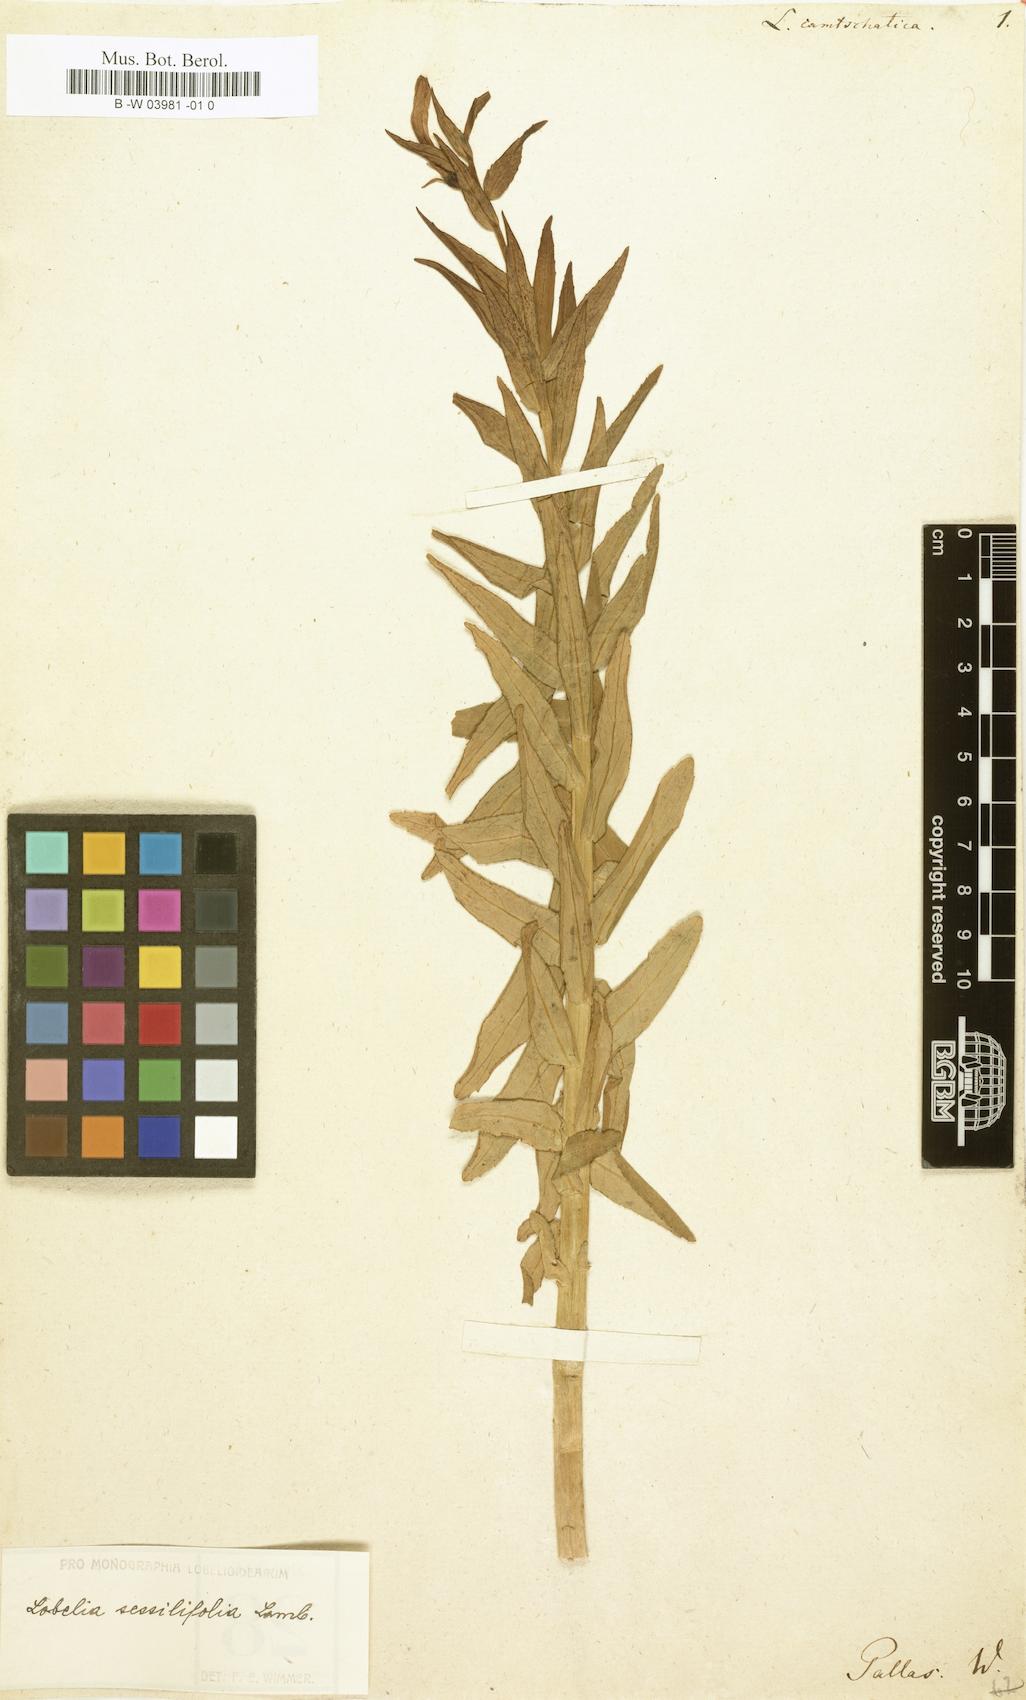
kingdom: Plantae
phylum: Tracheophyta
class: Magnoliopsida
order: Asterales
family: Campanulaceae
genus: Lobelia
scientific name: Lobelia camtschatica
